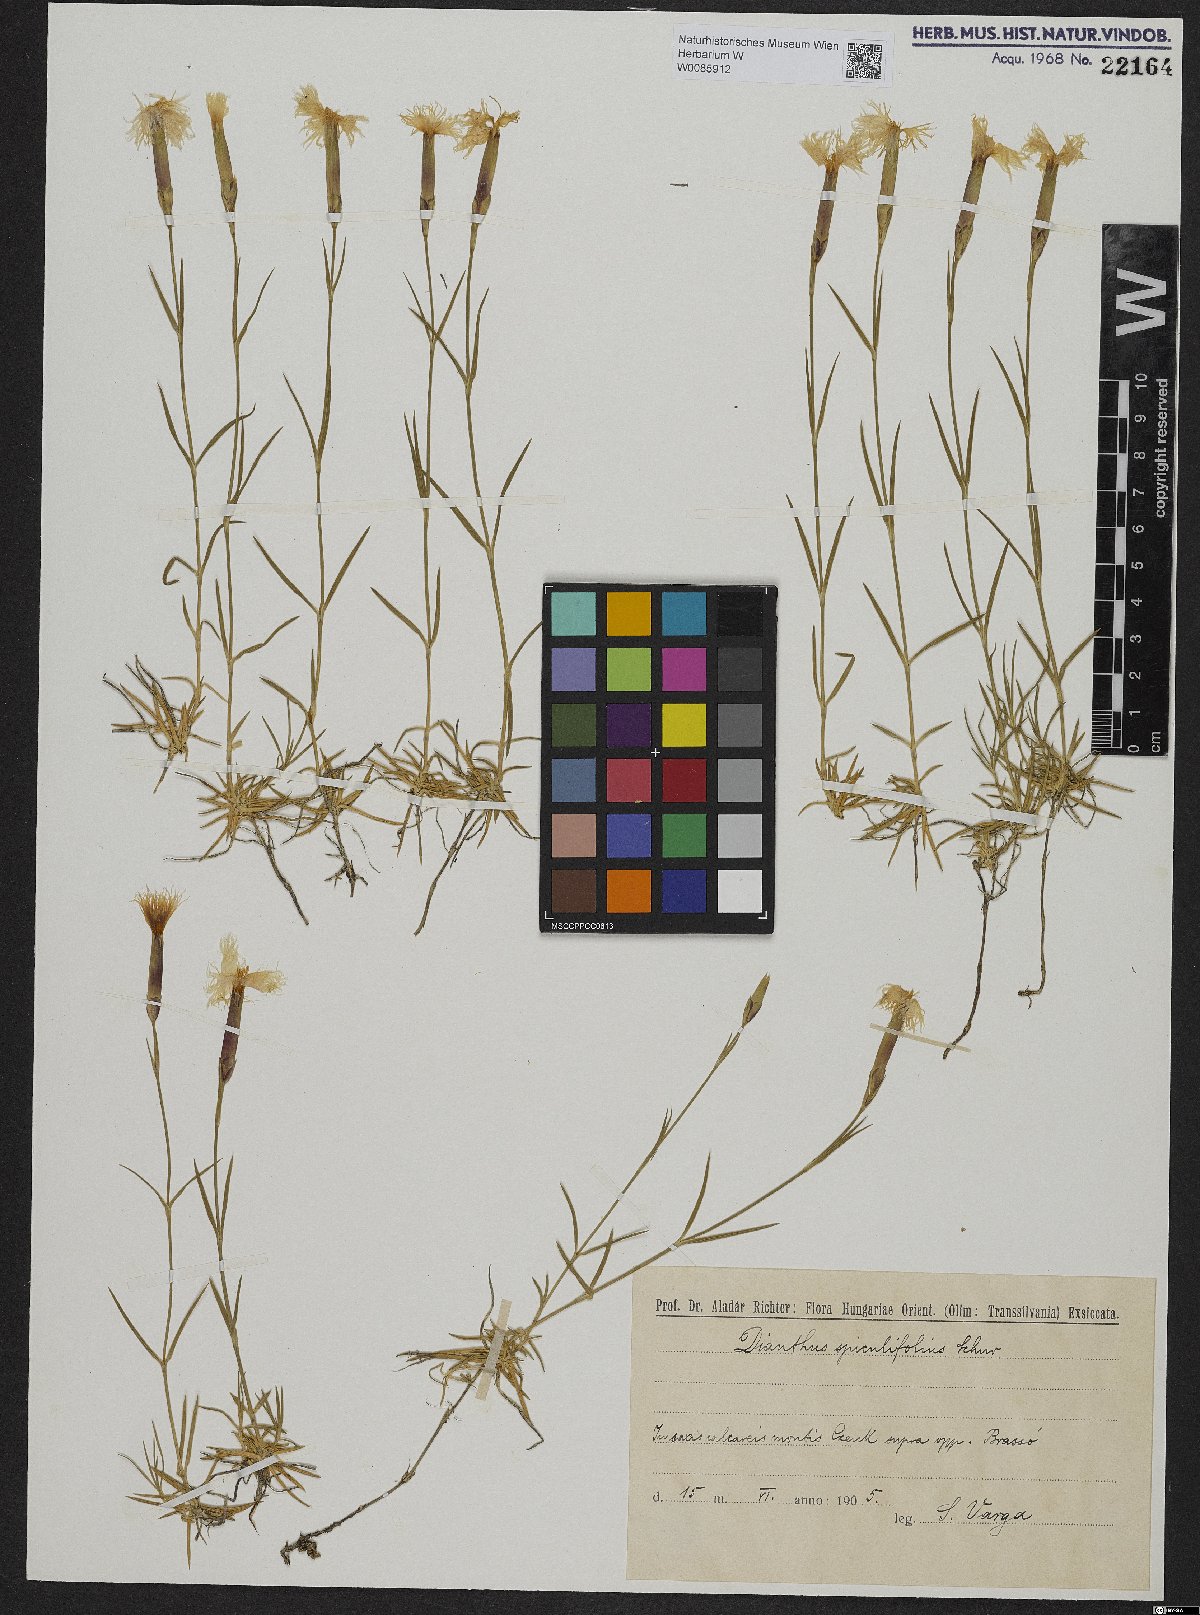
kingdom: Plantae
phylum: Tracheophyta
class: Magnoliopsida
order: Caryophyllales
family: Caryophyllaceae
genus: Dianthus
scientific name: Dianthus spiculifolius
